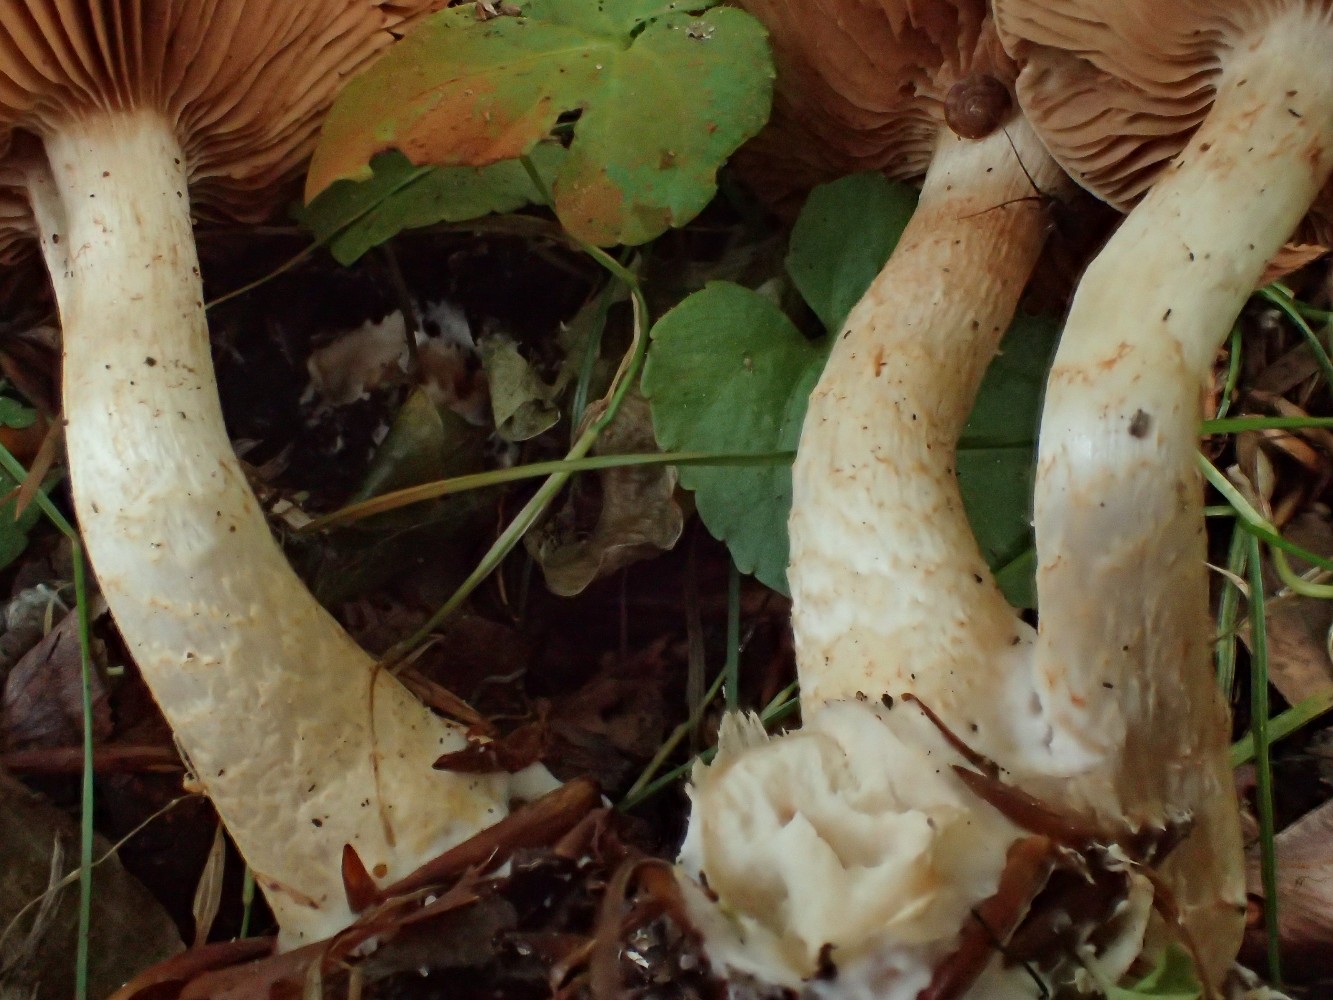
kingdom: Fungi
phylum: Basidiomycota
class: Agaricomycetes
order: Agaricales
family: Cortinariaceae
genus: Cortinarius
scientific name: Cortinarius pelerinii
